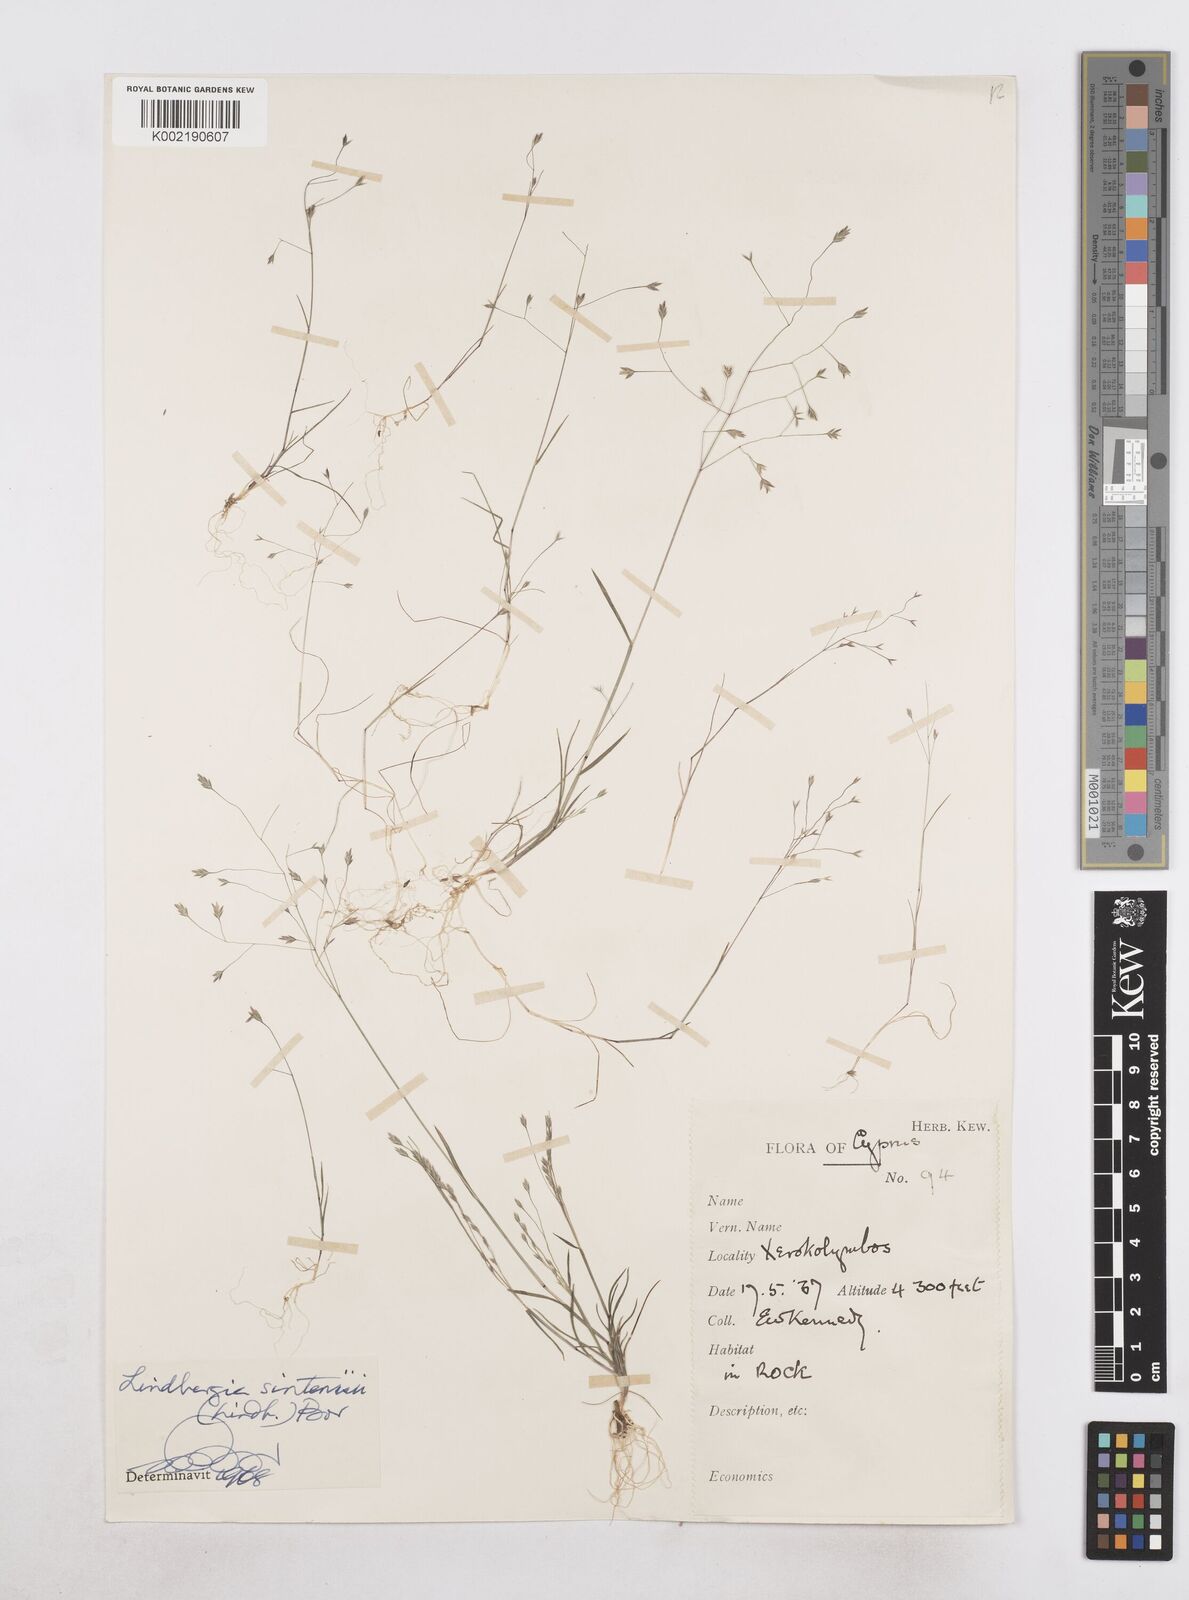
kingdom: Plantae
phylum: Tracheophyta
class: Liliopsida
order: Poales
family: Poaceae
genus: Poa
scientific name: Poa sintenisii
